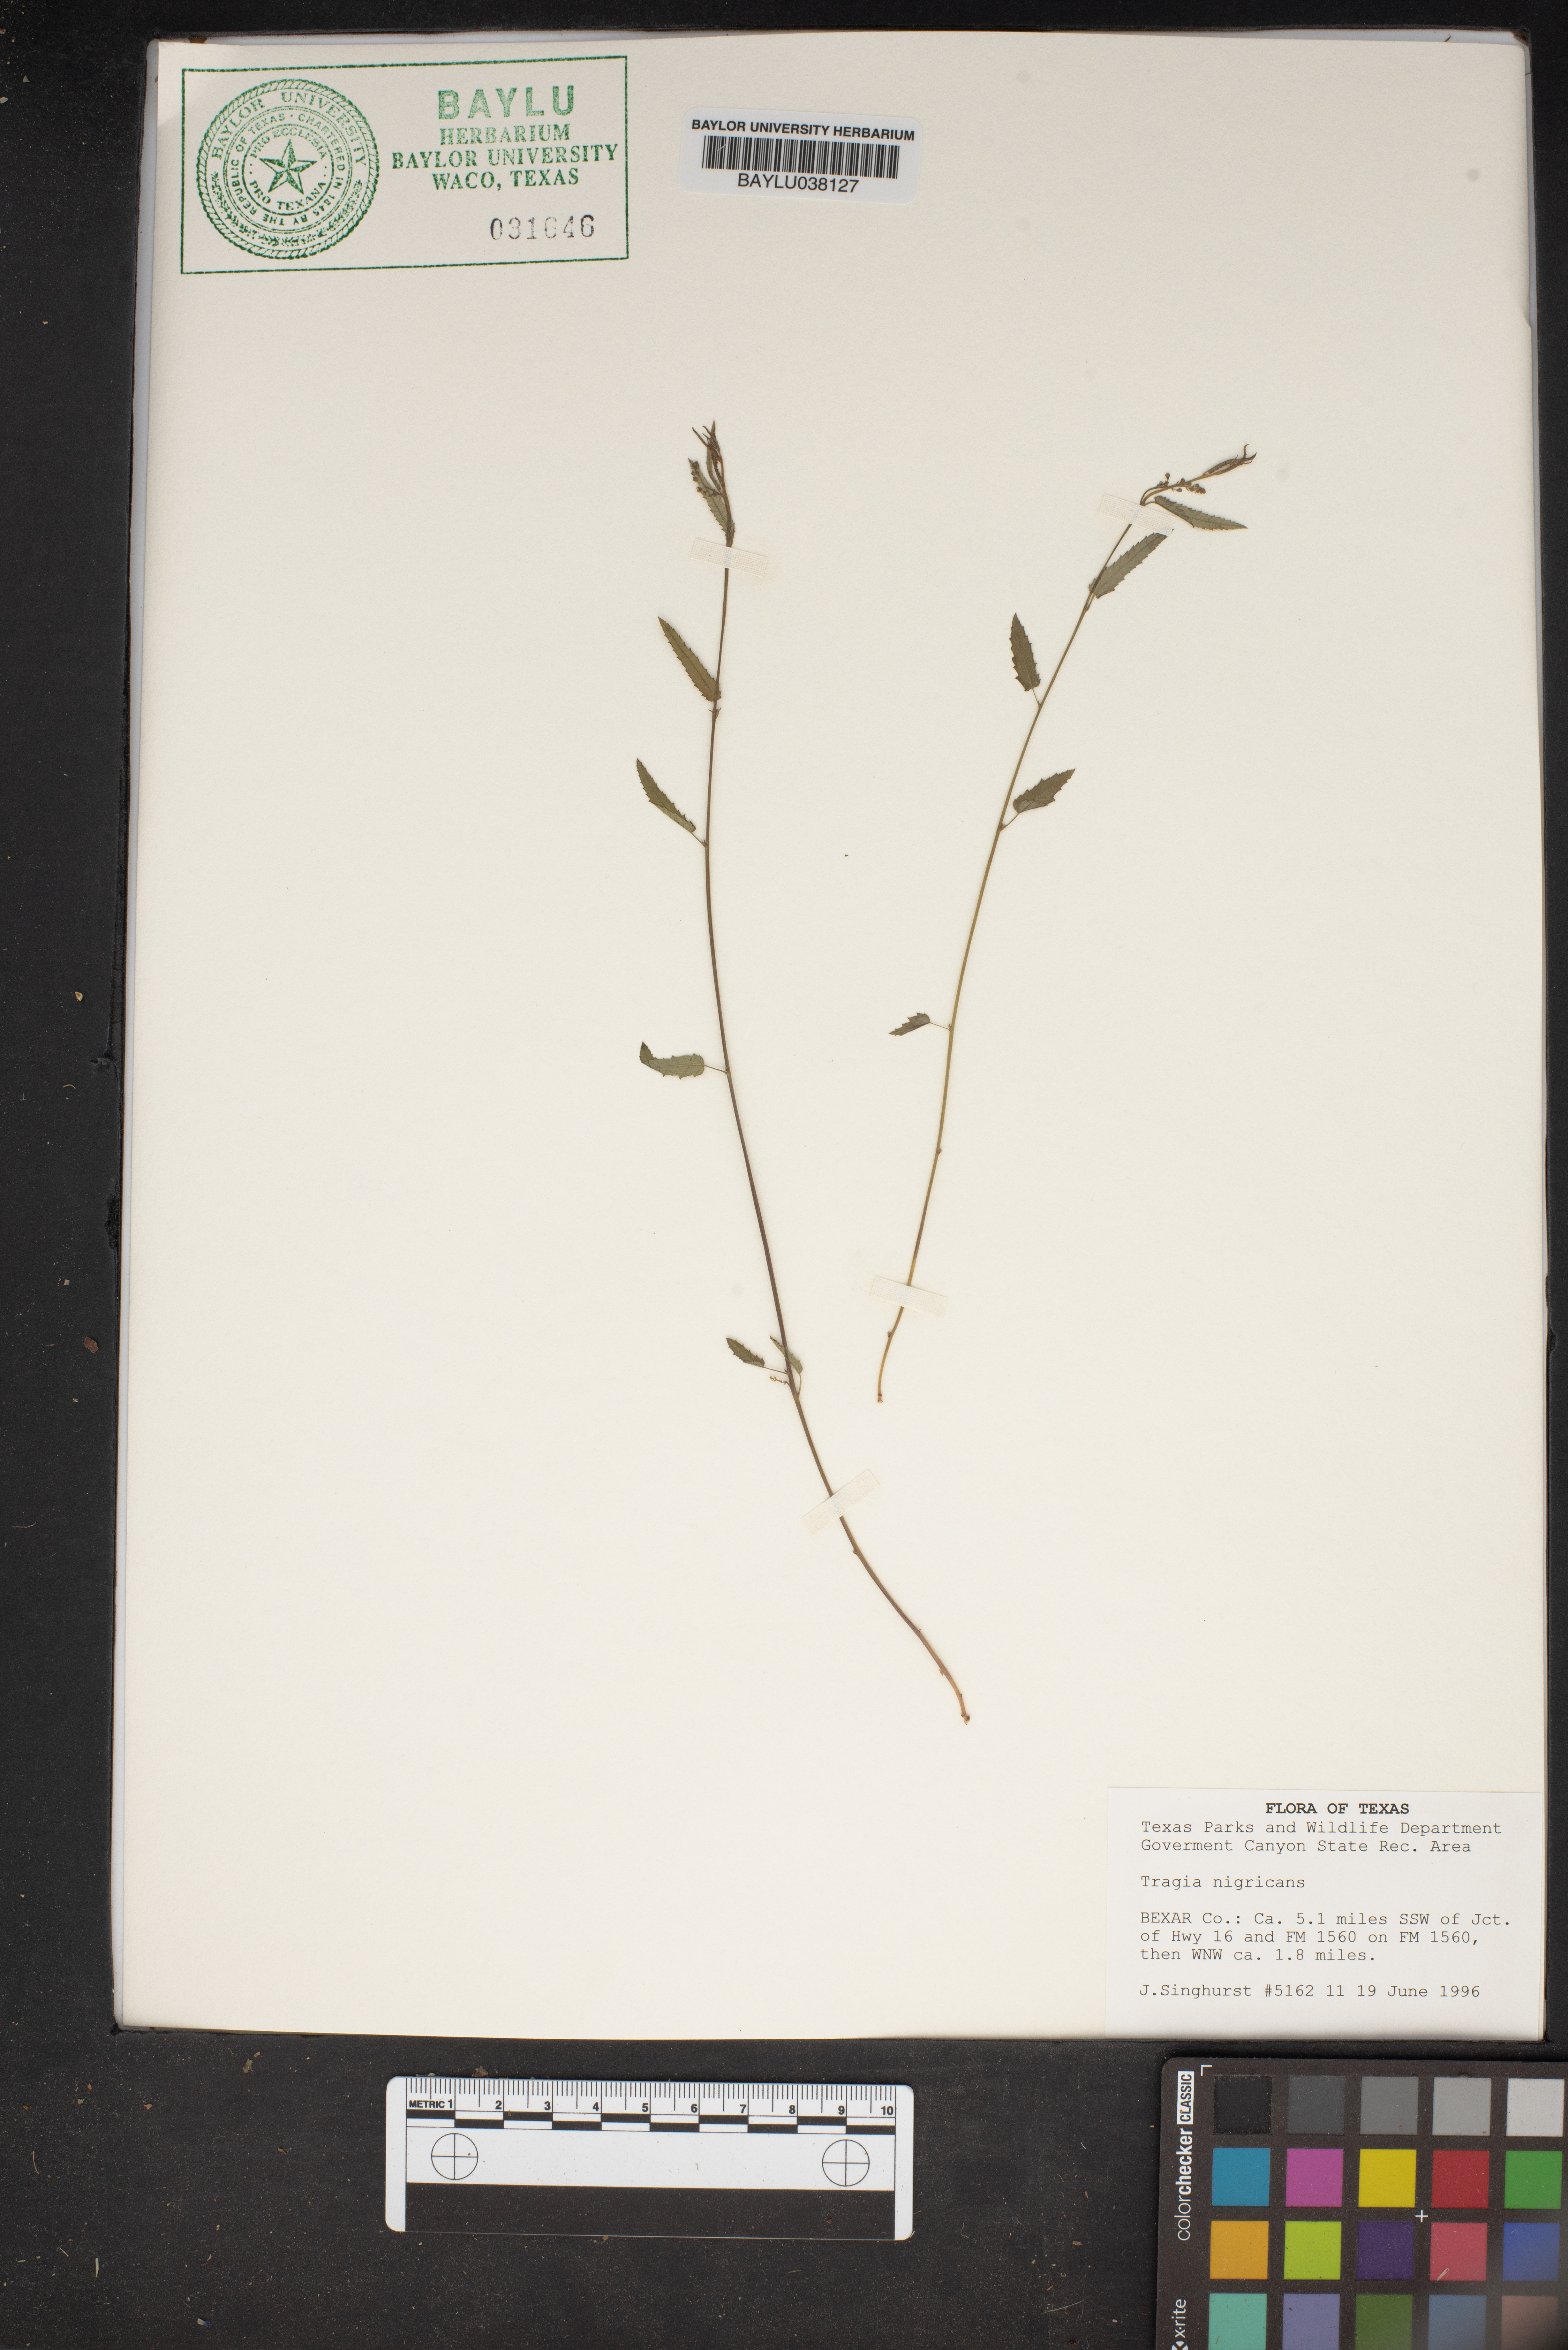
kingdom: Plantae
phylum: Tracheophyta
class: Magnoliopsida
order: Malpighiales
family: Euphorbiaceae
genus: Tragia
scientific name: Tragia nigricans
